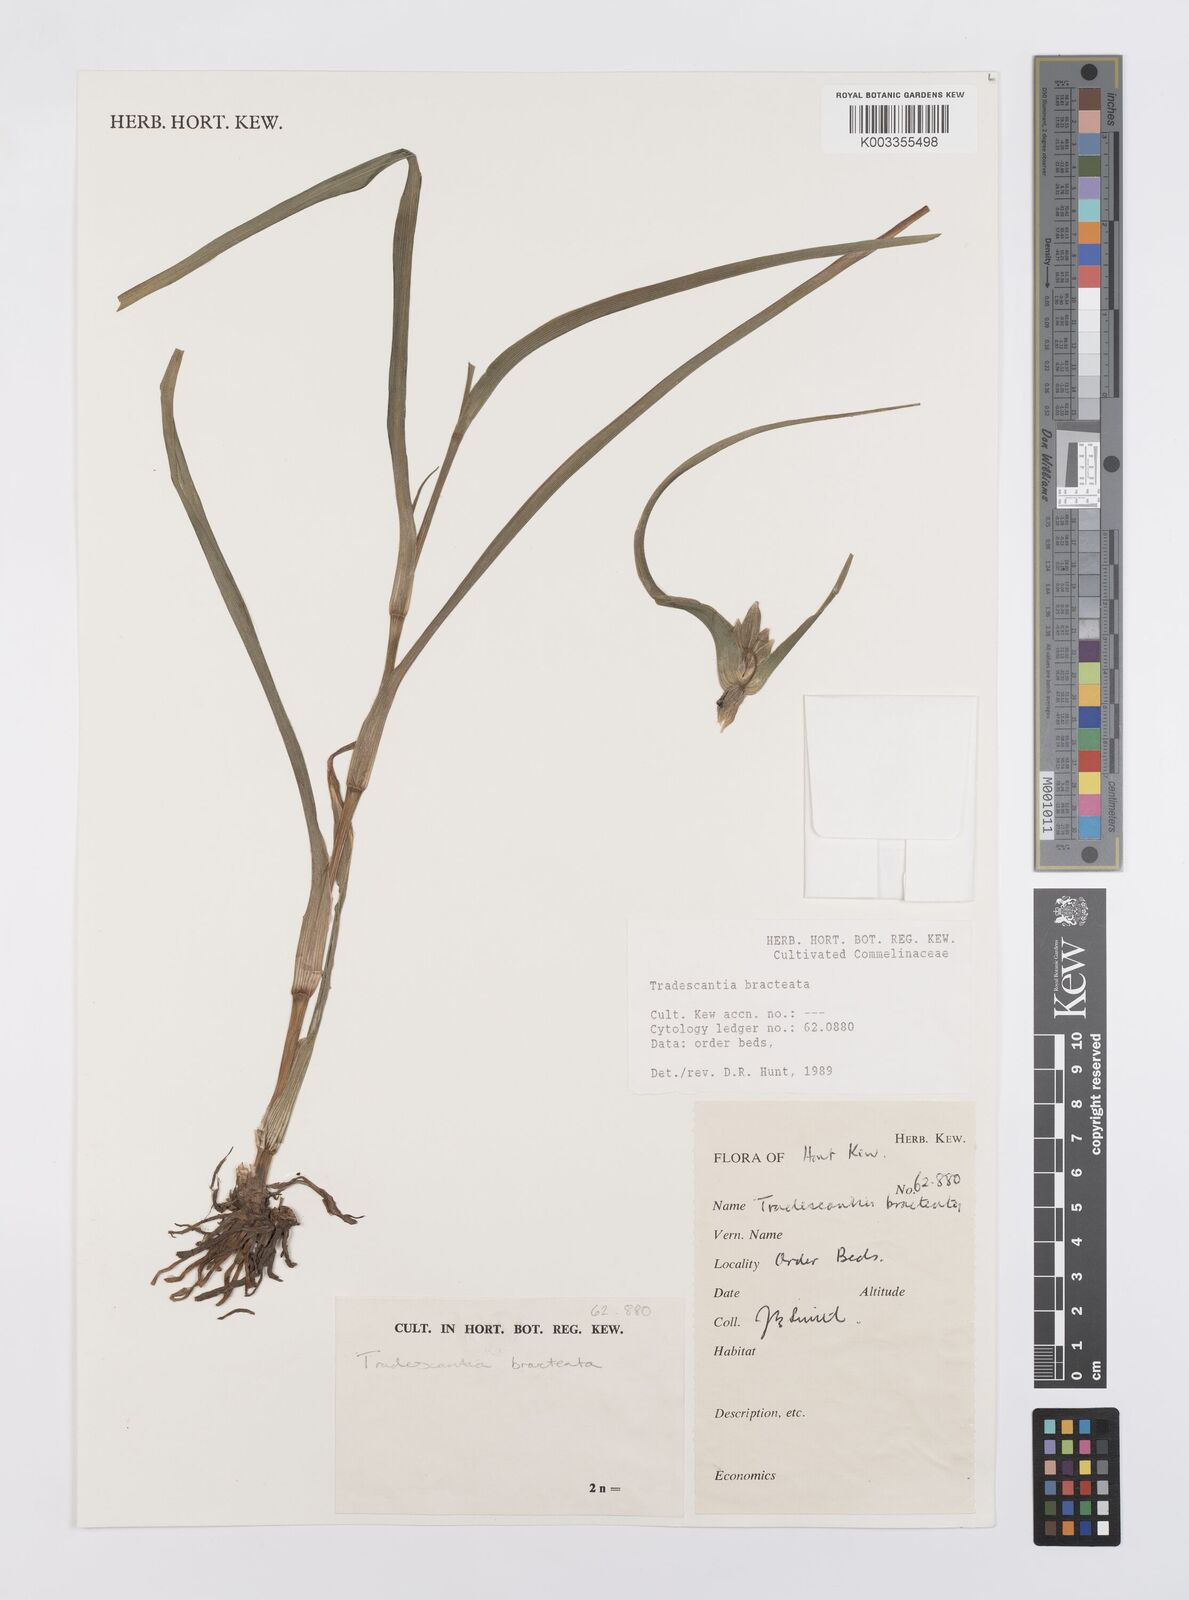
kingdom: Plantae
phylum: Tracheophyta
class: Liliopsida
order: Commelinales
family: Commelinaceae
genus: Tradescantia
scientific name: Tradescantia bracteata
